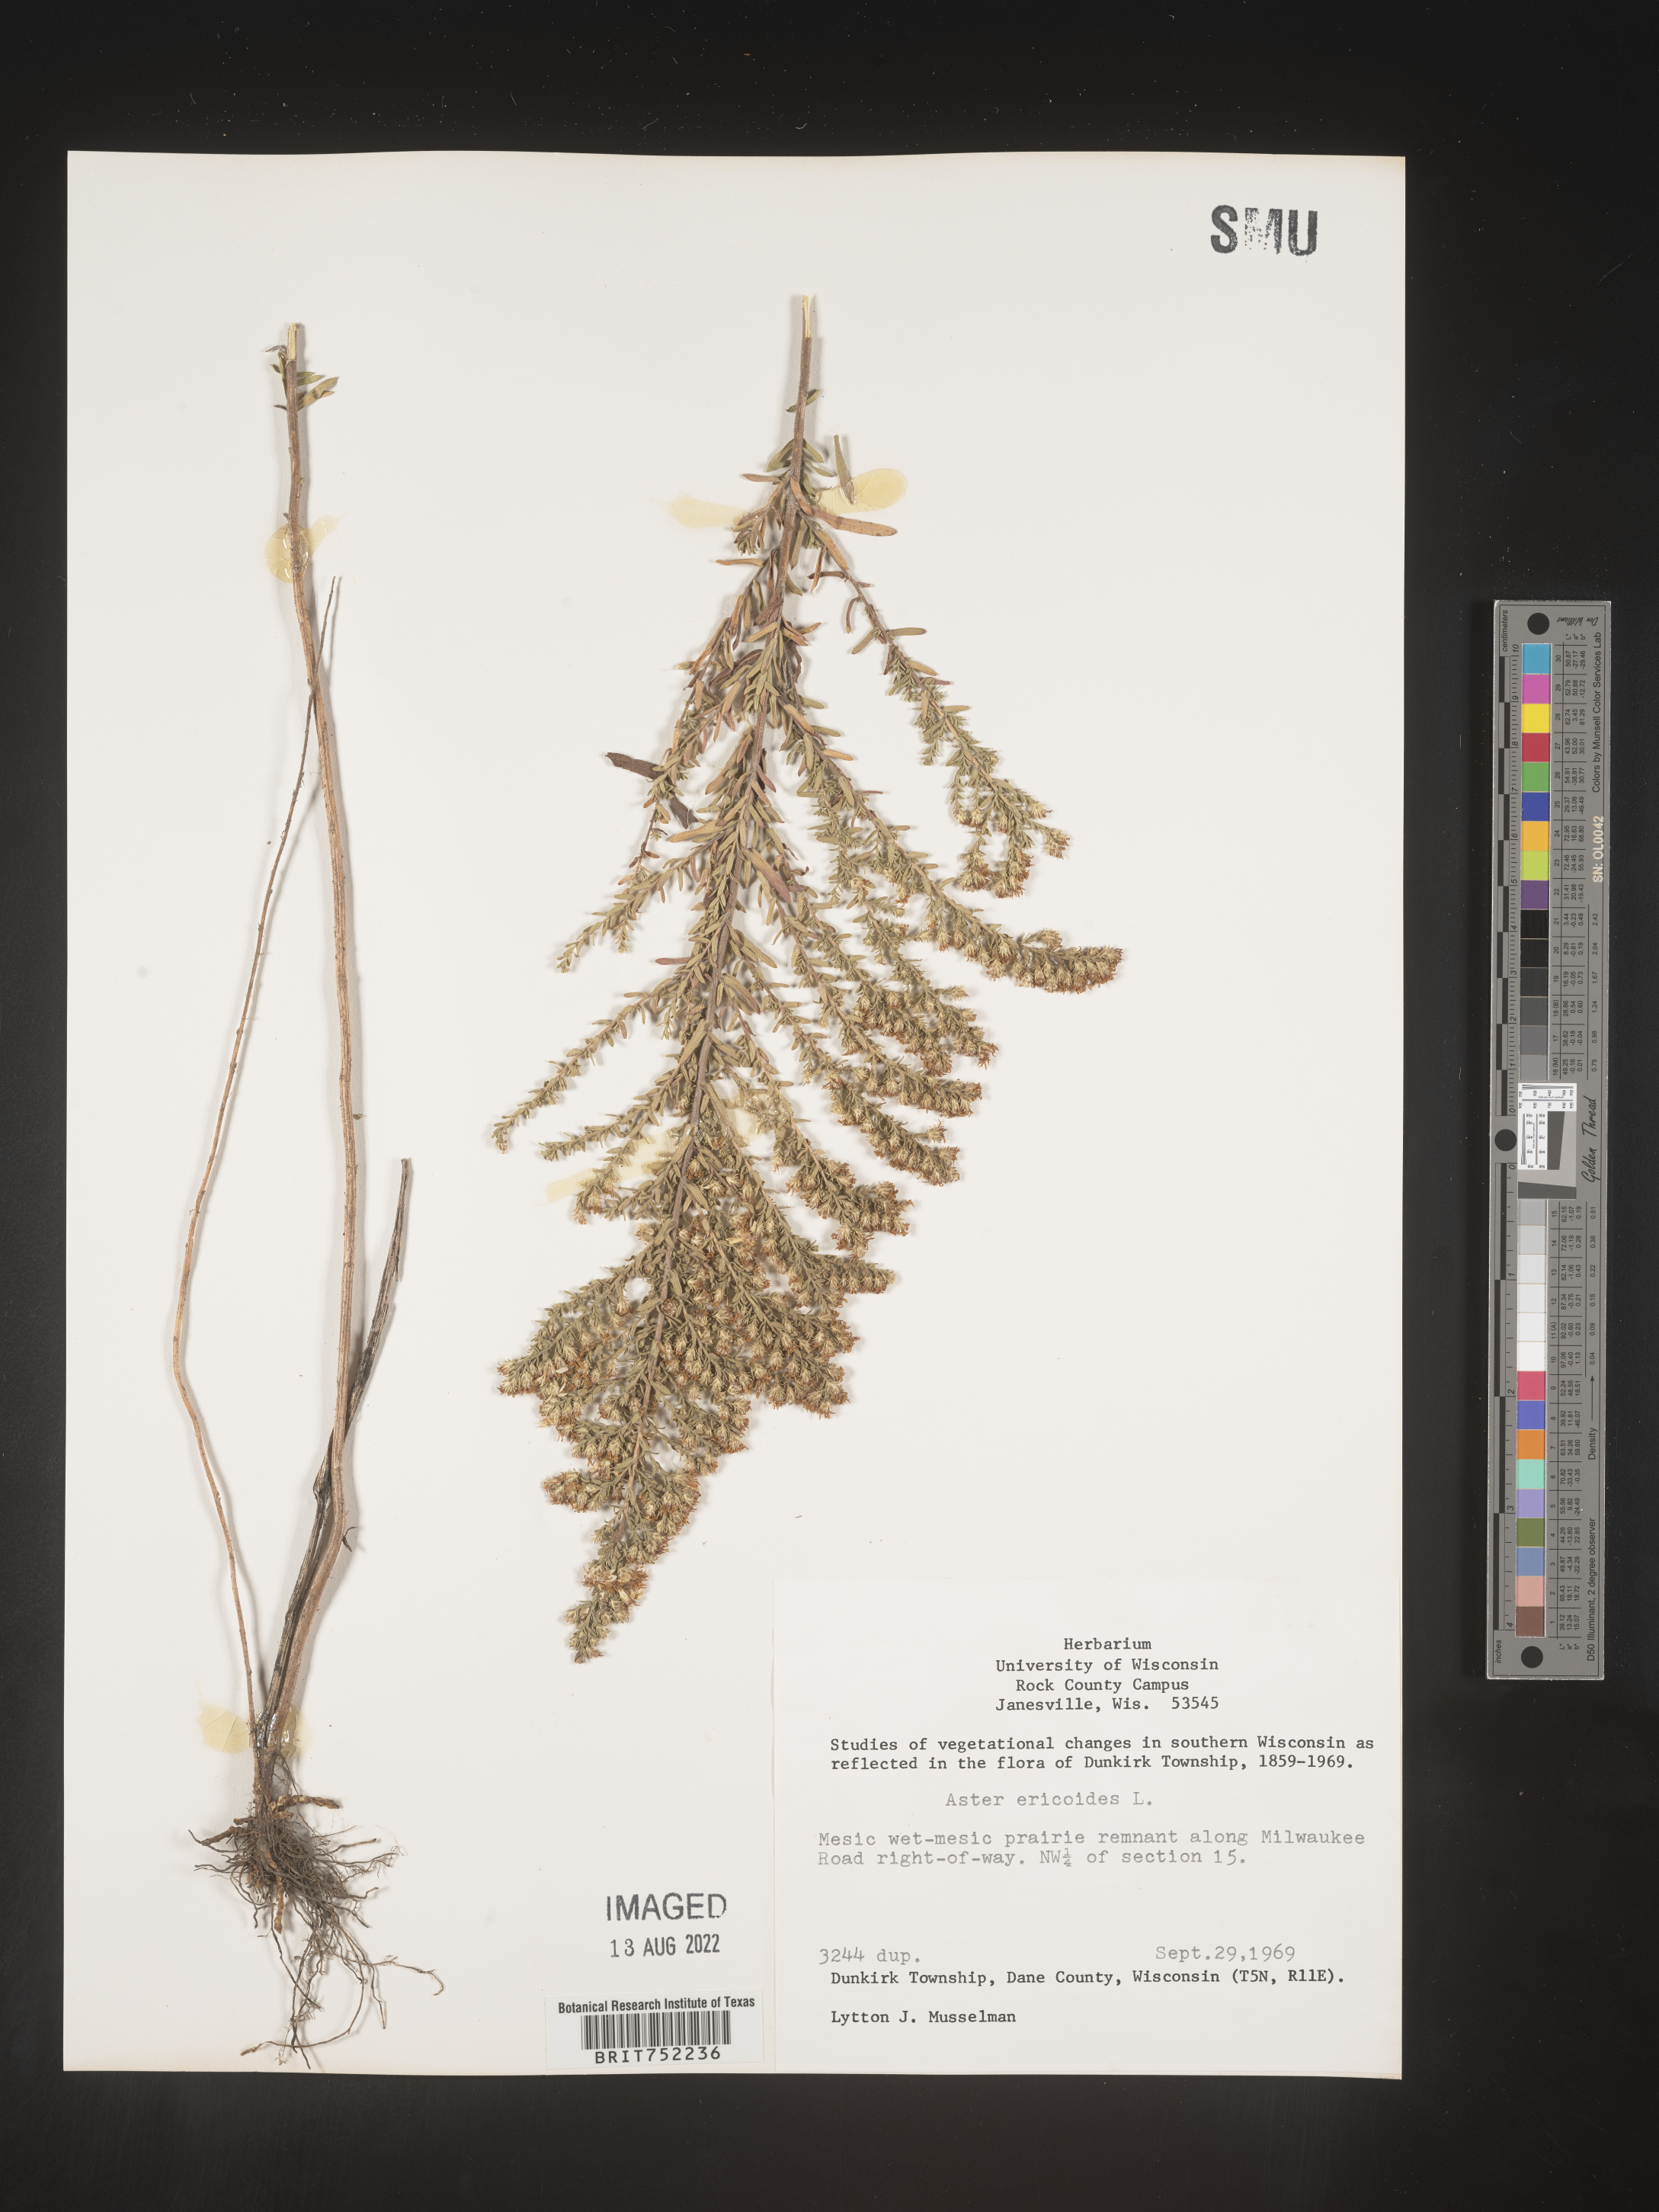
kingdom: Plantae
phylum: Tracheophyta
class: Magnoliopsida
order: Asterales
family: Asteraceae
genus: Symphyotrichum
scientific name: Symphyotrichum ericoides
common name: Heath aster
